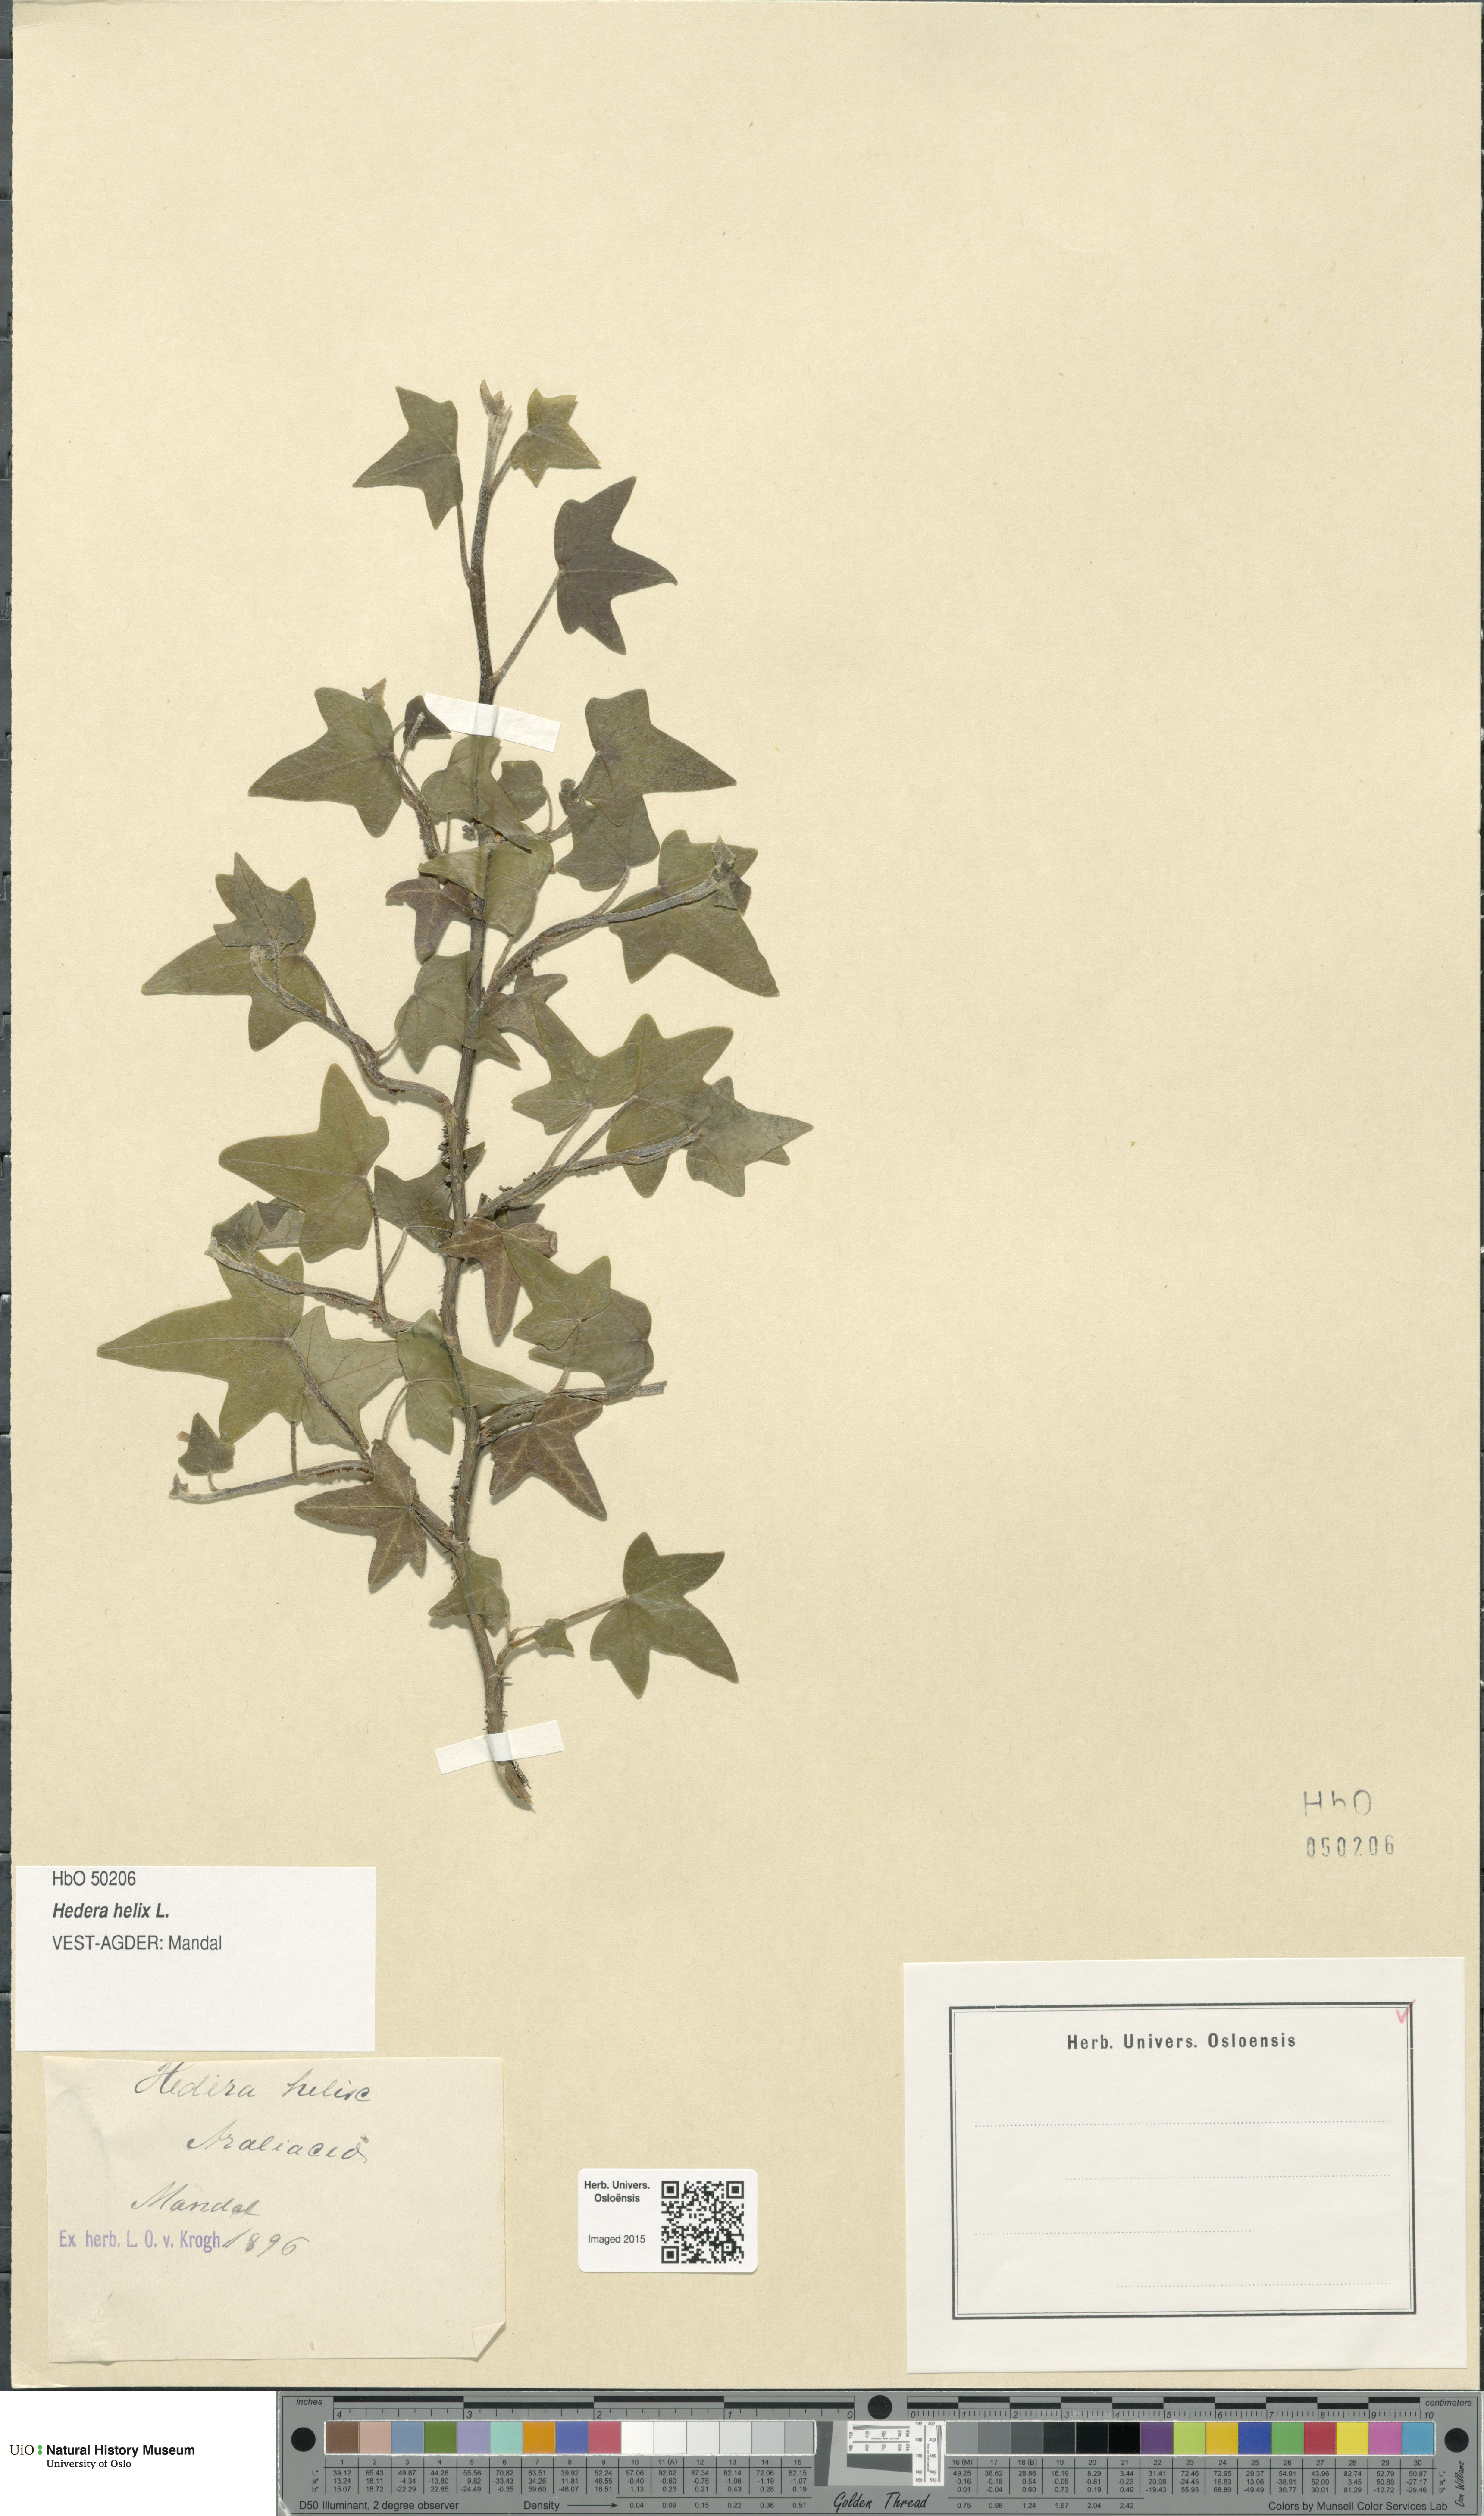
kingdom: Plantae
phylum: Tracheophyta
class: Magnoliopsida
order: Apiales
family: Araliaceae
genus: Hedera
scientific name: Hedera helix
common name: Ivy
